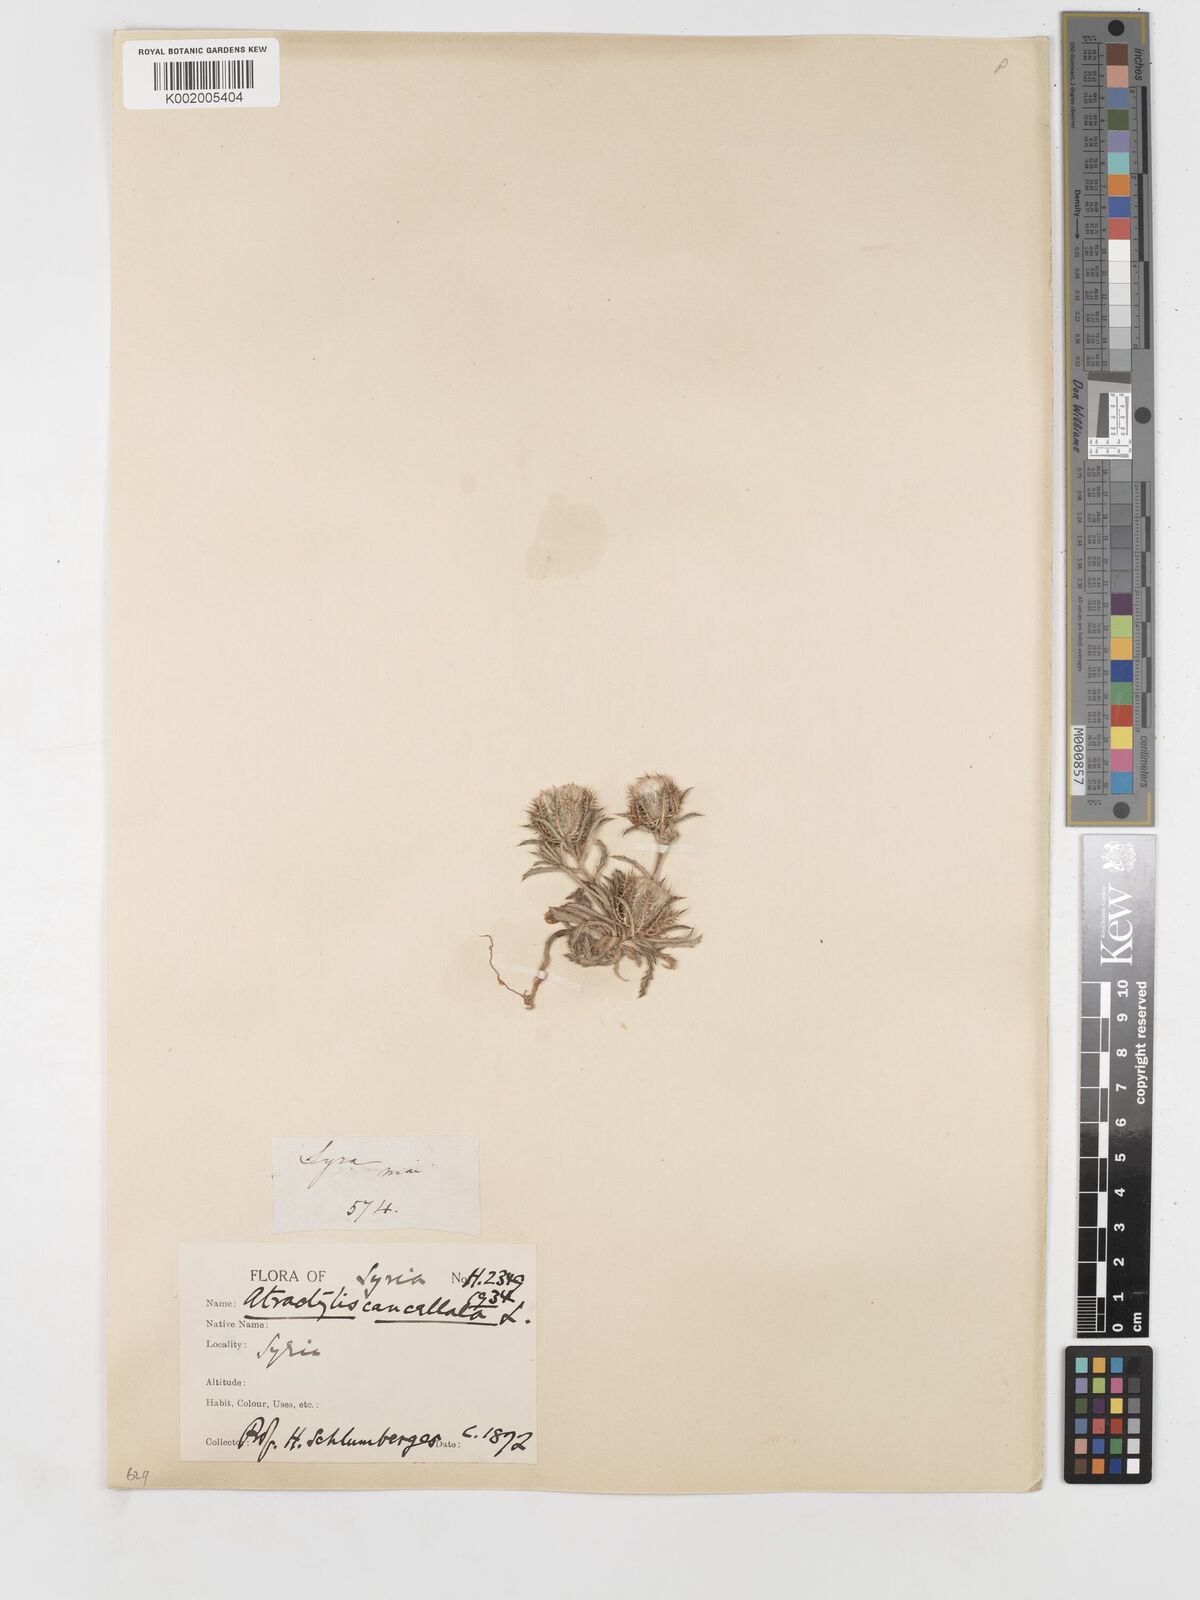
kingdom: Plantae
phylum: Tracheophyta
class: Magnoliopsida
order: Asterales
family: Asteraceae
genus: Atractylis
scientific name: Atractylis cancellata
